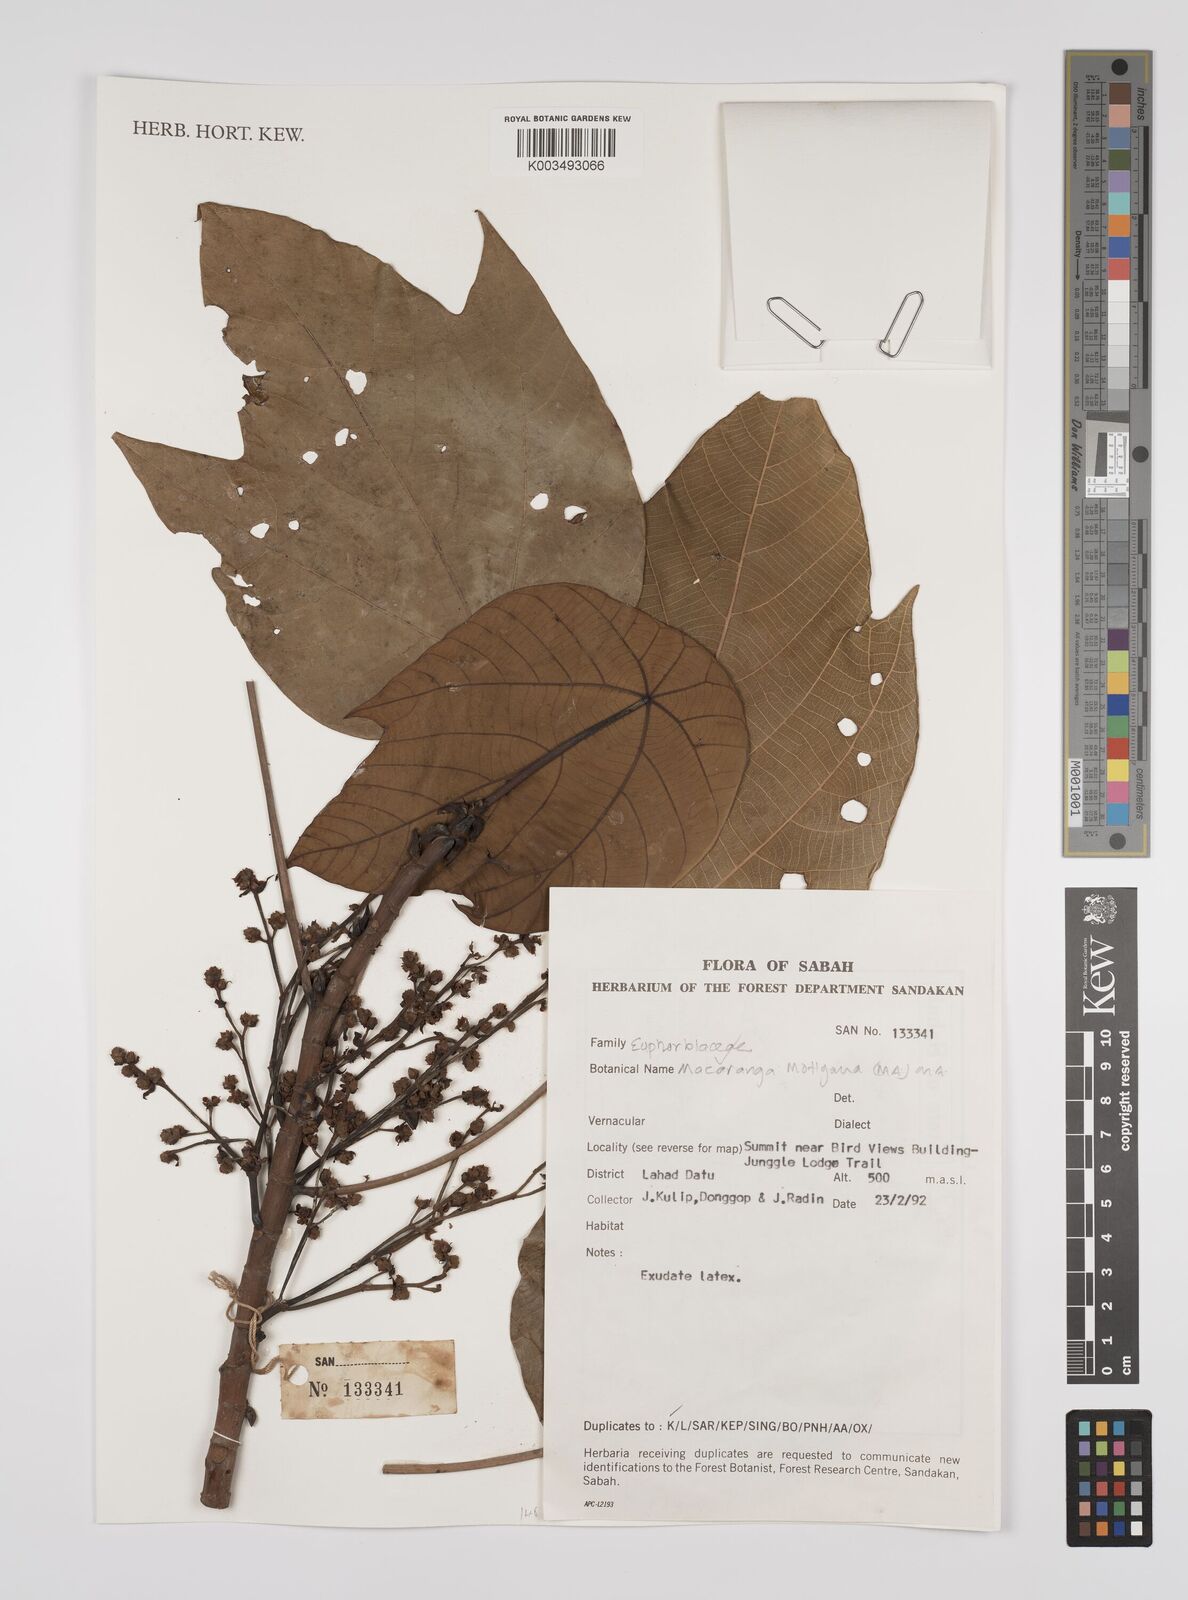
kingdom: Plantae
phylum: Tracheophyta
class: Magnoliopsida
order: Malpighiales
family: Euphorbiaceae
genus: Macaranga
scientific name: Macaranga motleyana
